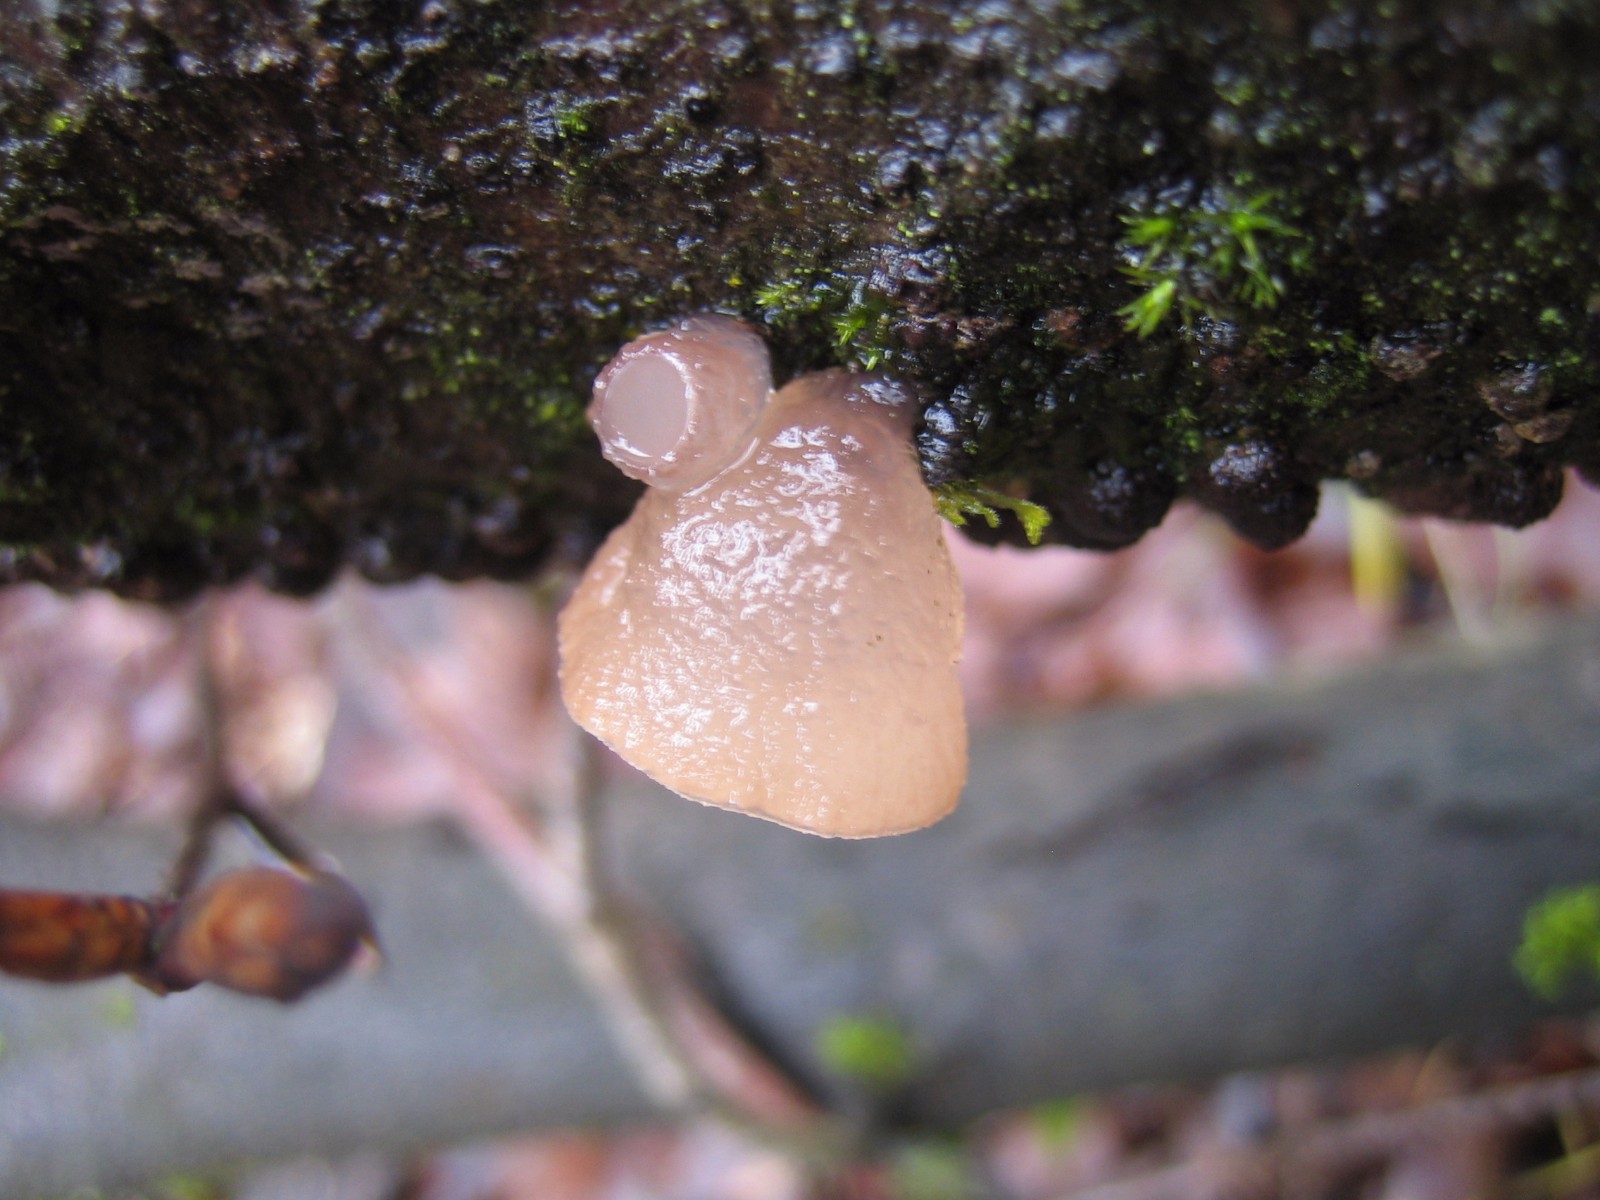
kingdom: Fungi
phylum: Ascomycota
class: Leotiomycetes
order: Helotiales
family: Gelatinodiscaceae
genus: Neobulgaria
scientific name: Neobulgaria pura
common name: bleg bævreskive
